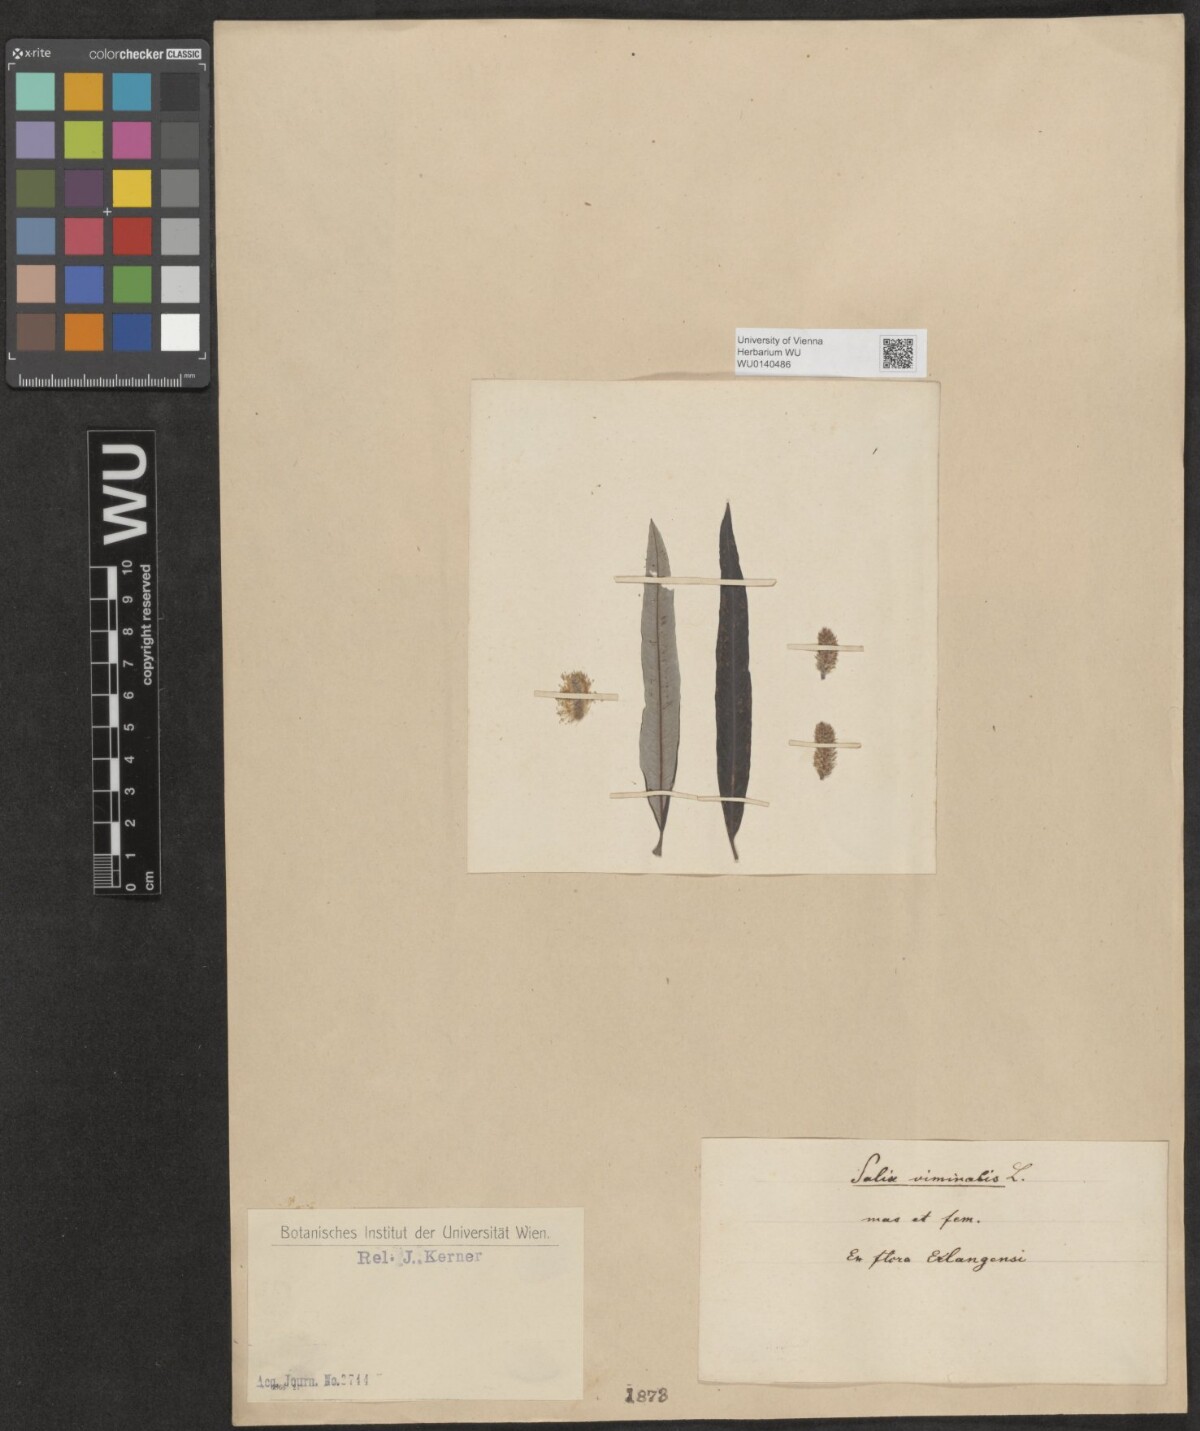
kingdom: Plantae
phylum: Tracheophyta
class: Magnoliopsida
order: Malpighiales
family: Salicaceae
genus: Salix
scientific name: Salix viminalis
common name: Osier
